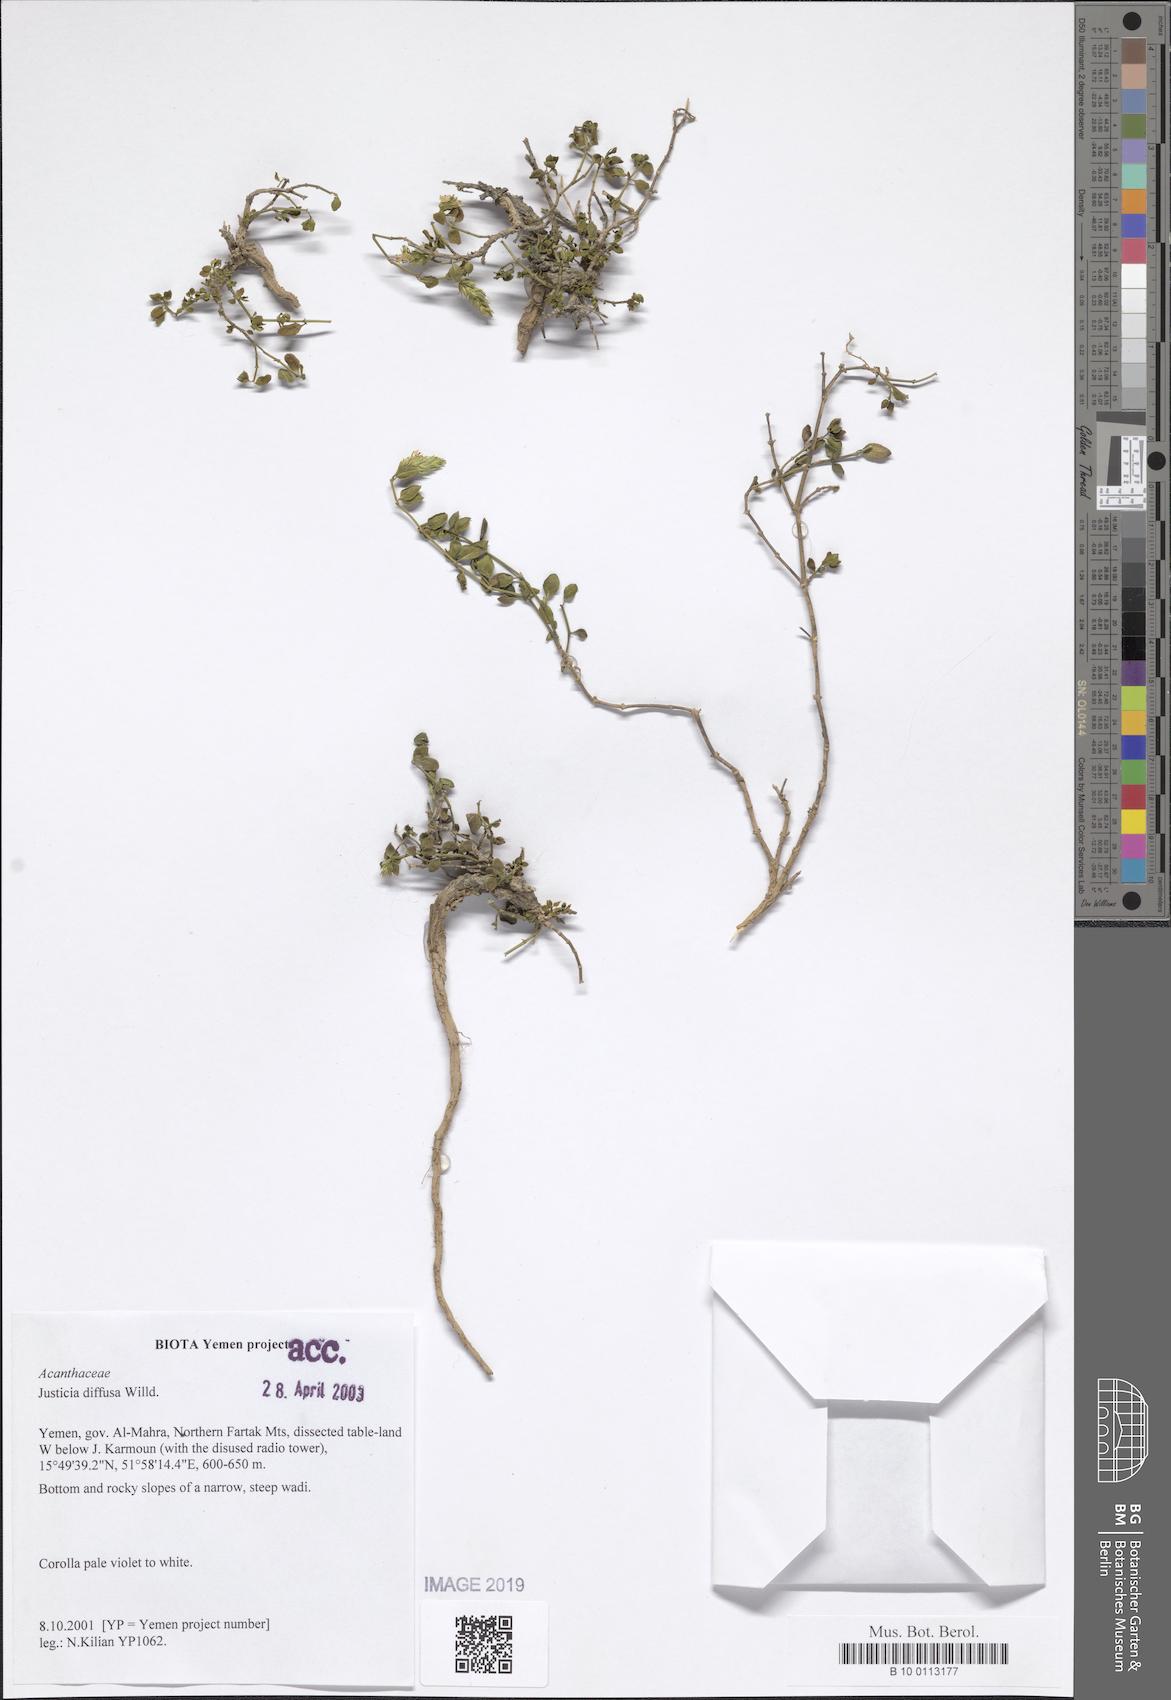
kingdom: Plantae
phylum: Tracheophyta
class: Magnoliopsida
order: Lamiales
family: Acanthaceae
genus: Rostellularia
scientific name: Rostellularia diffusa
